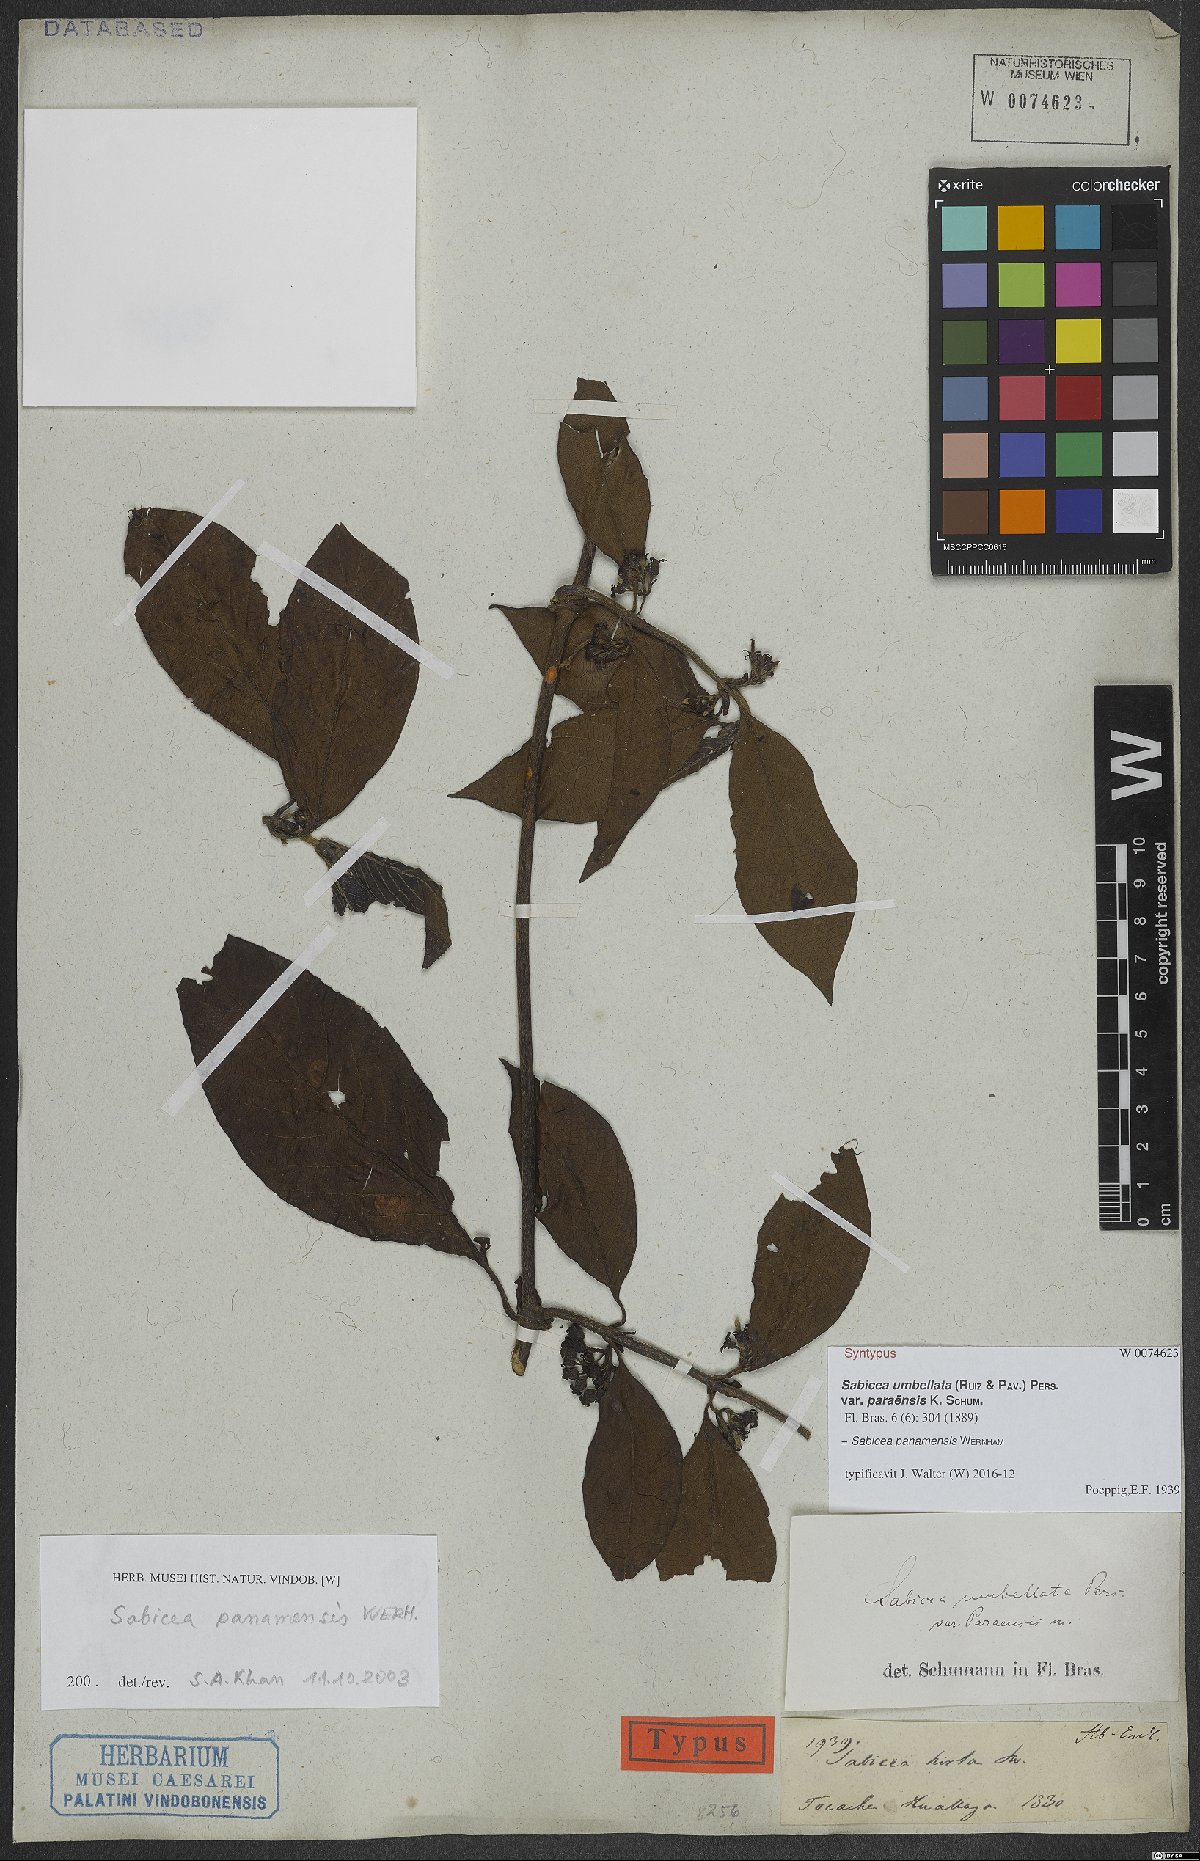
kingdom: Plantae
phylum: Tracheophyta
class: Magnoliopsida
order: Gentianales
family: Rubiaceae
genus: Sabicea
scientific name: Sabicea panamensis
